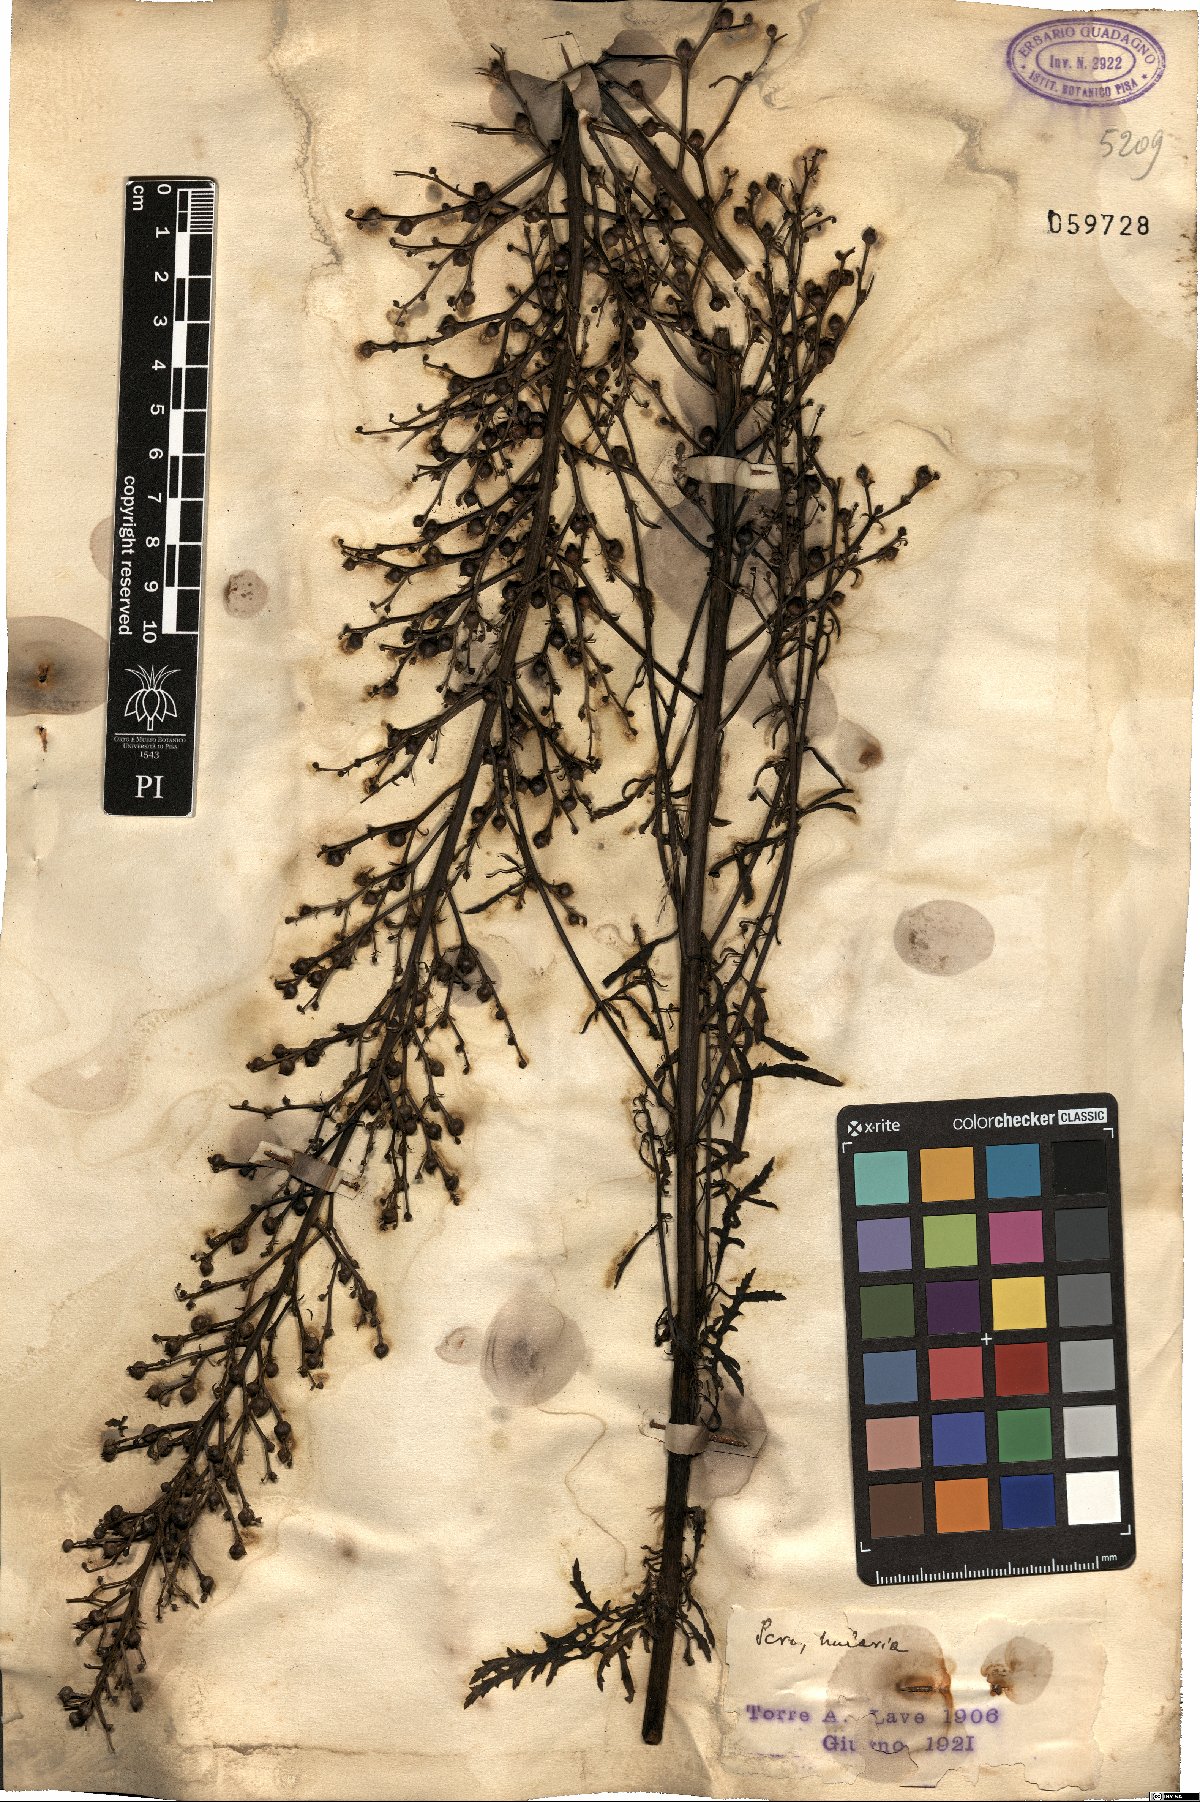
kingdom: Plantae
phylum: Tracheophyta
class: Magnoliopsida
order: Lamiales
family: Scrophulariaceae
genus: Scrophularia
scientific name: Scrophularia
